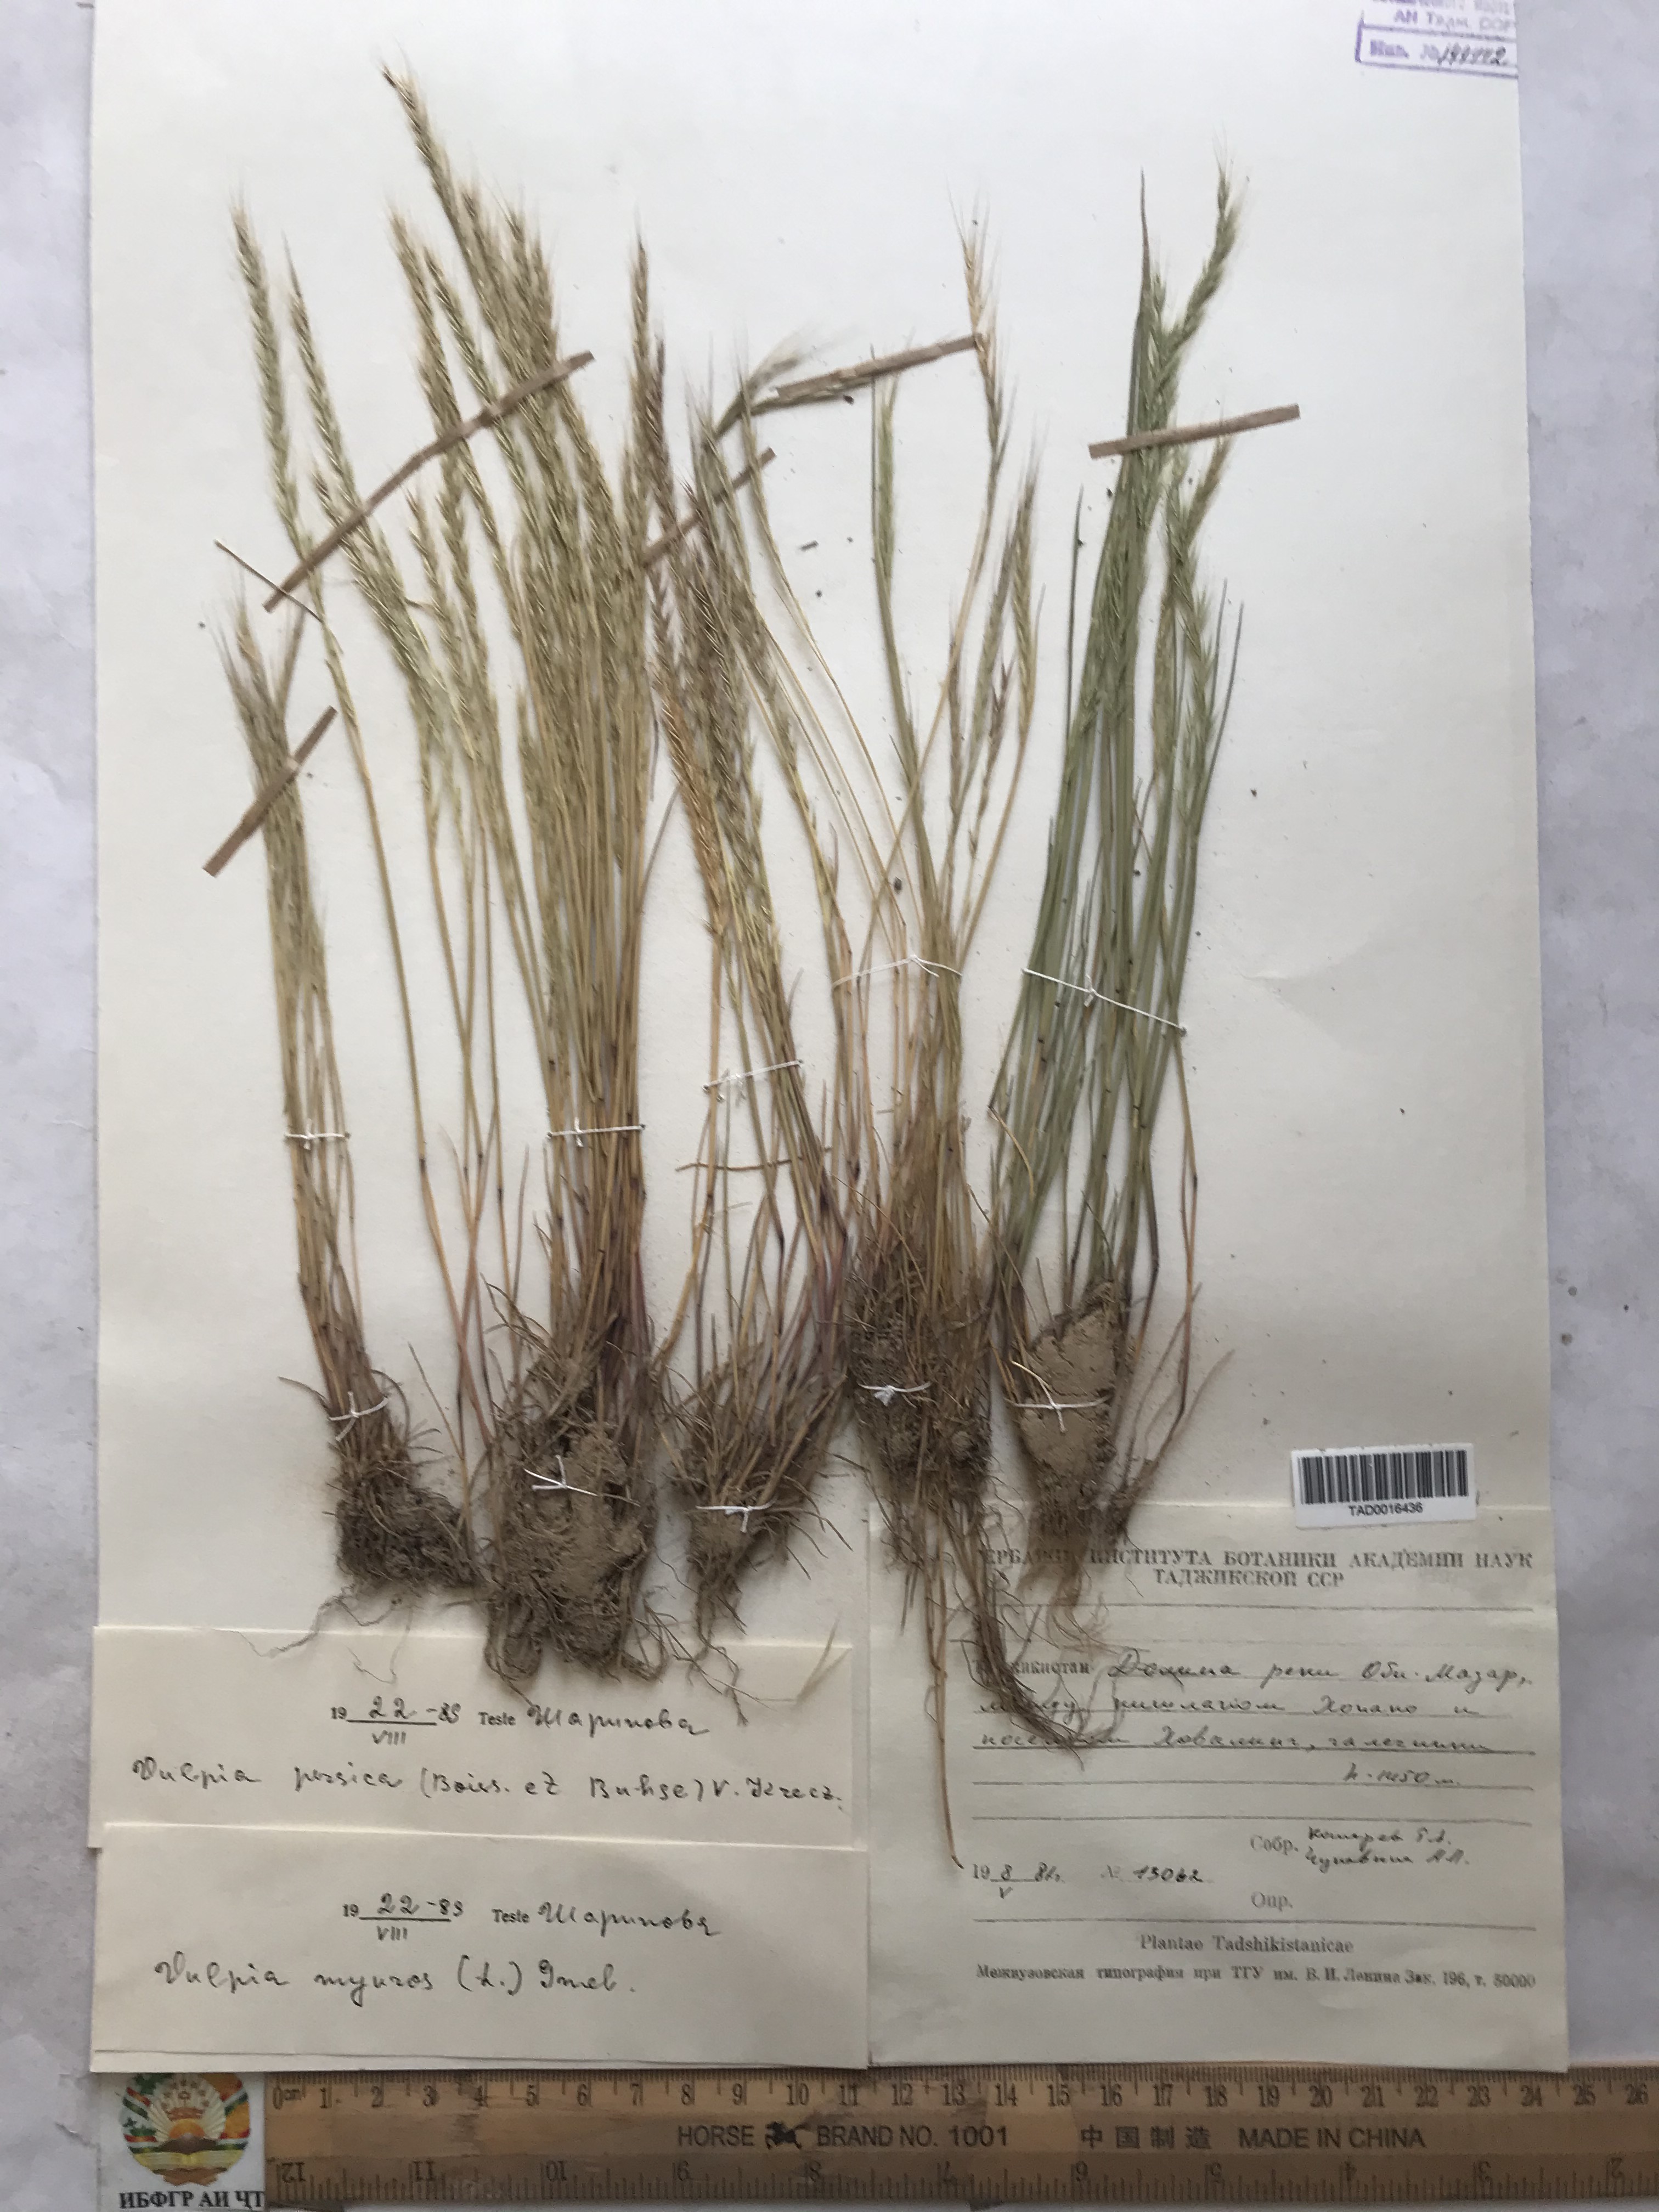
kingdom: Plantae
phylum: Tracheophyta
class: Liliopsida
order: Poales
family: Poaceae
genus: Festuca
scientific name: Festuca Vulpia persica
